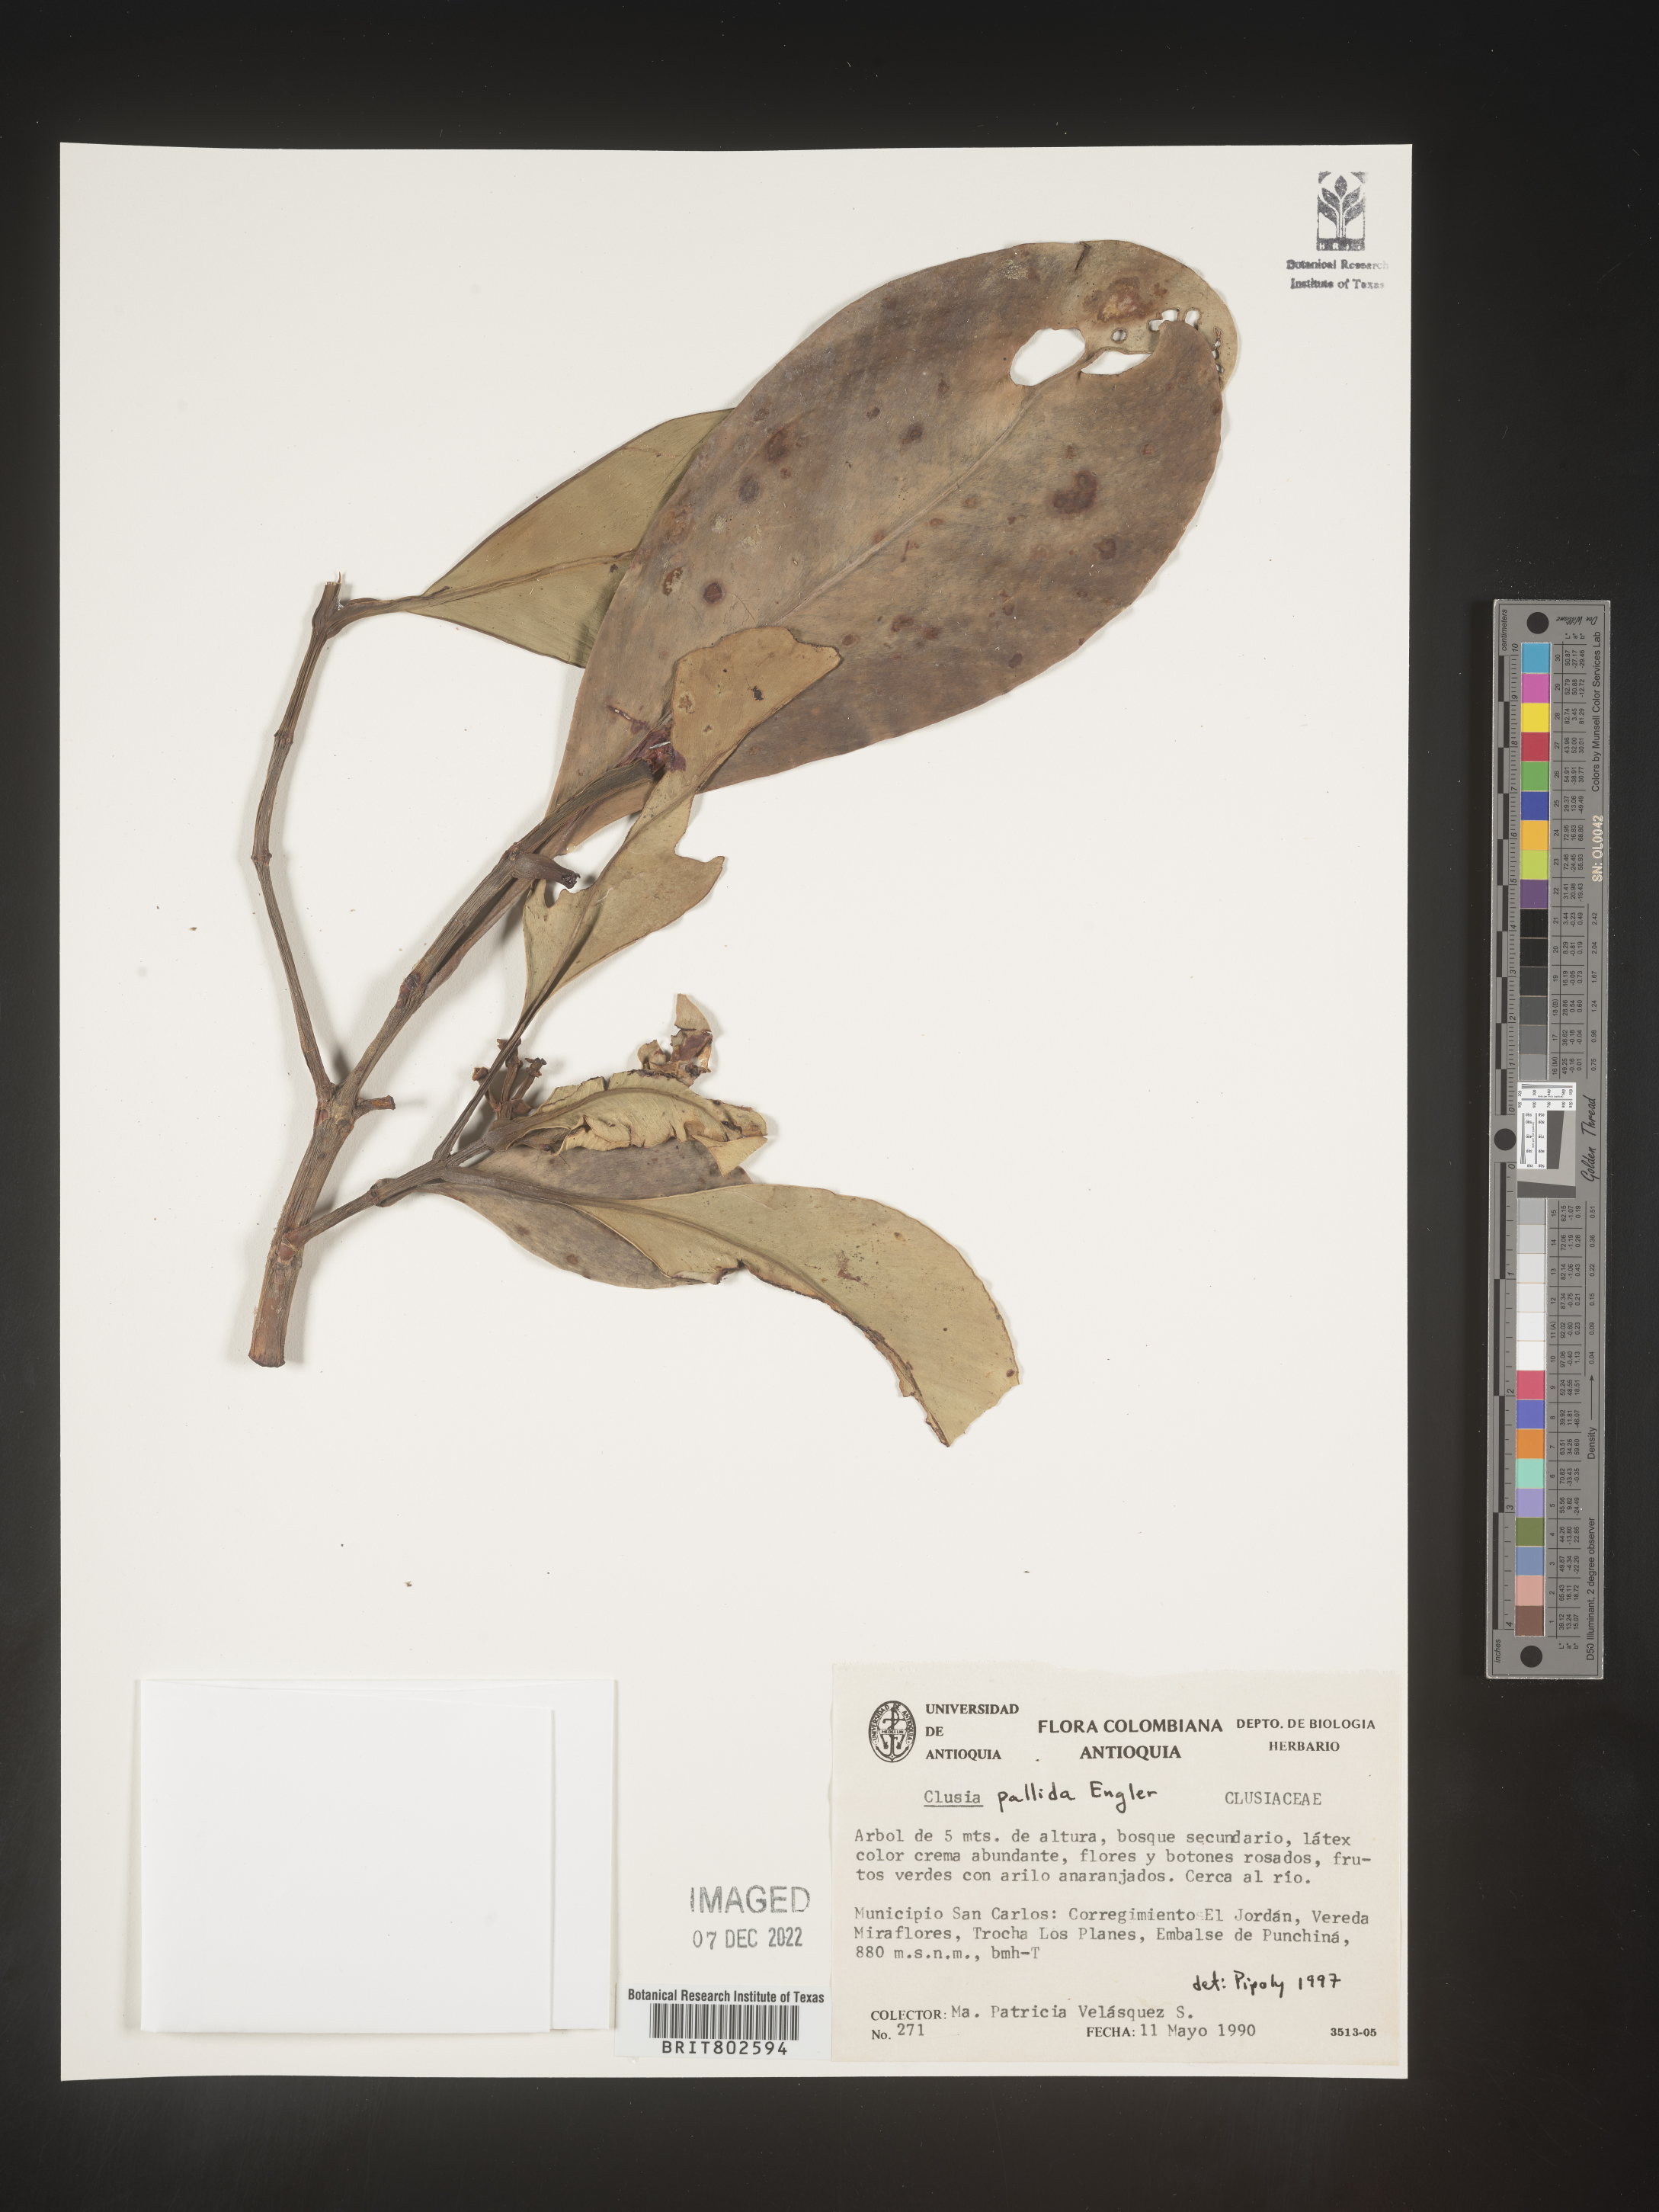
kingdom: Plantae
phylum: Tracheophyta
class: Magnoliopsida
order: Malpighiales
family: Clusiaceae
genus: Clusia
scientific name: Clusia pallida
